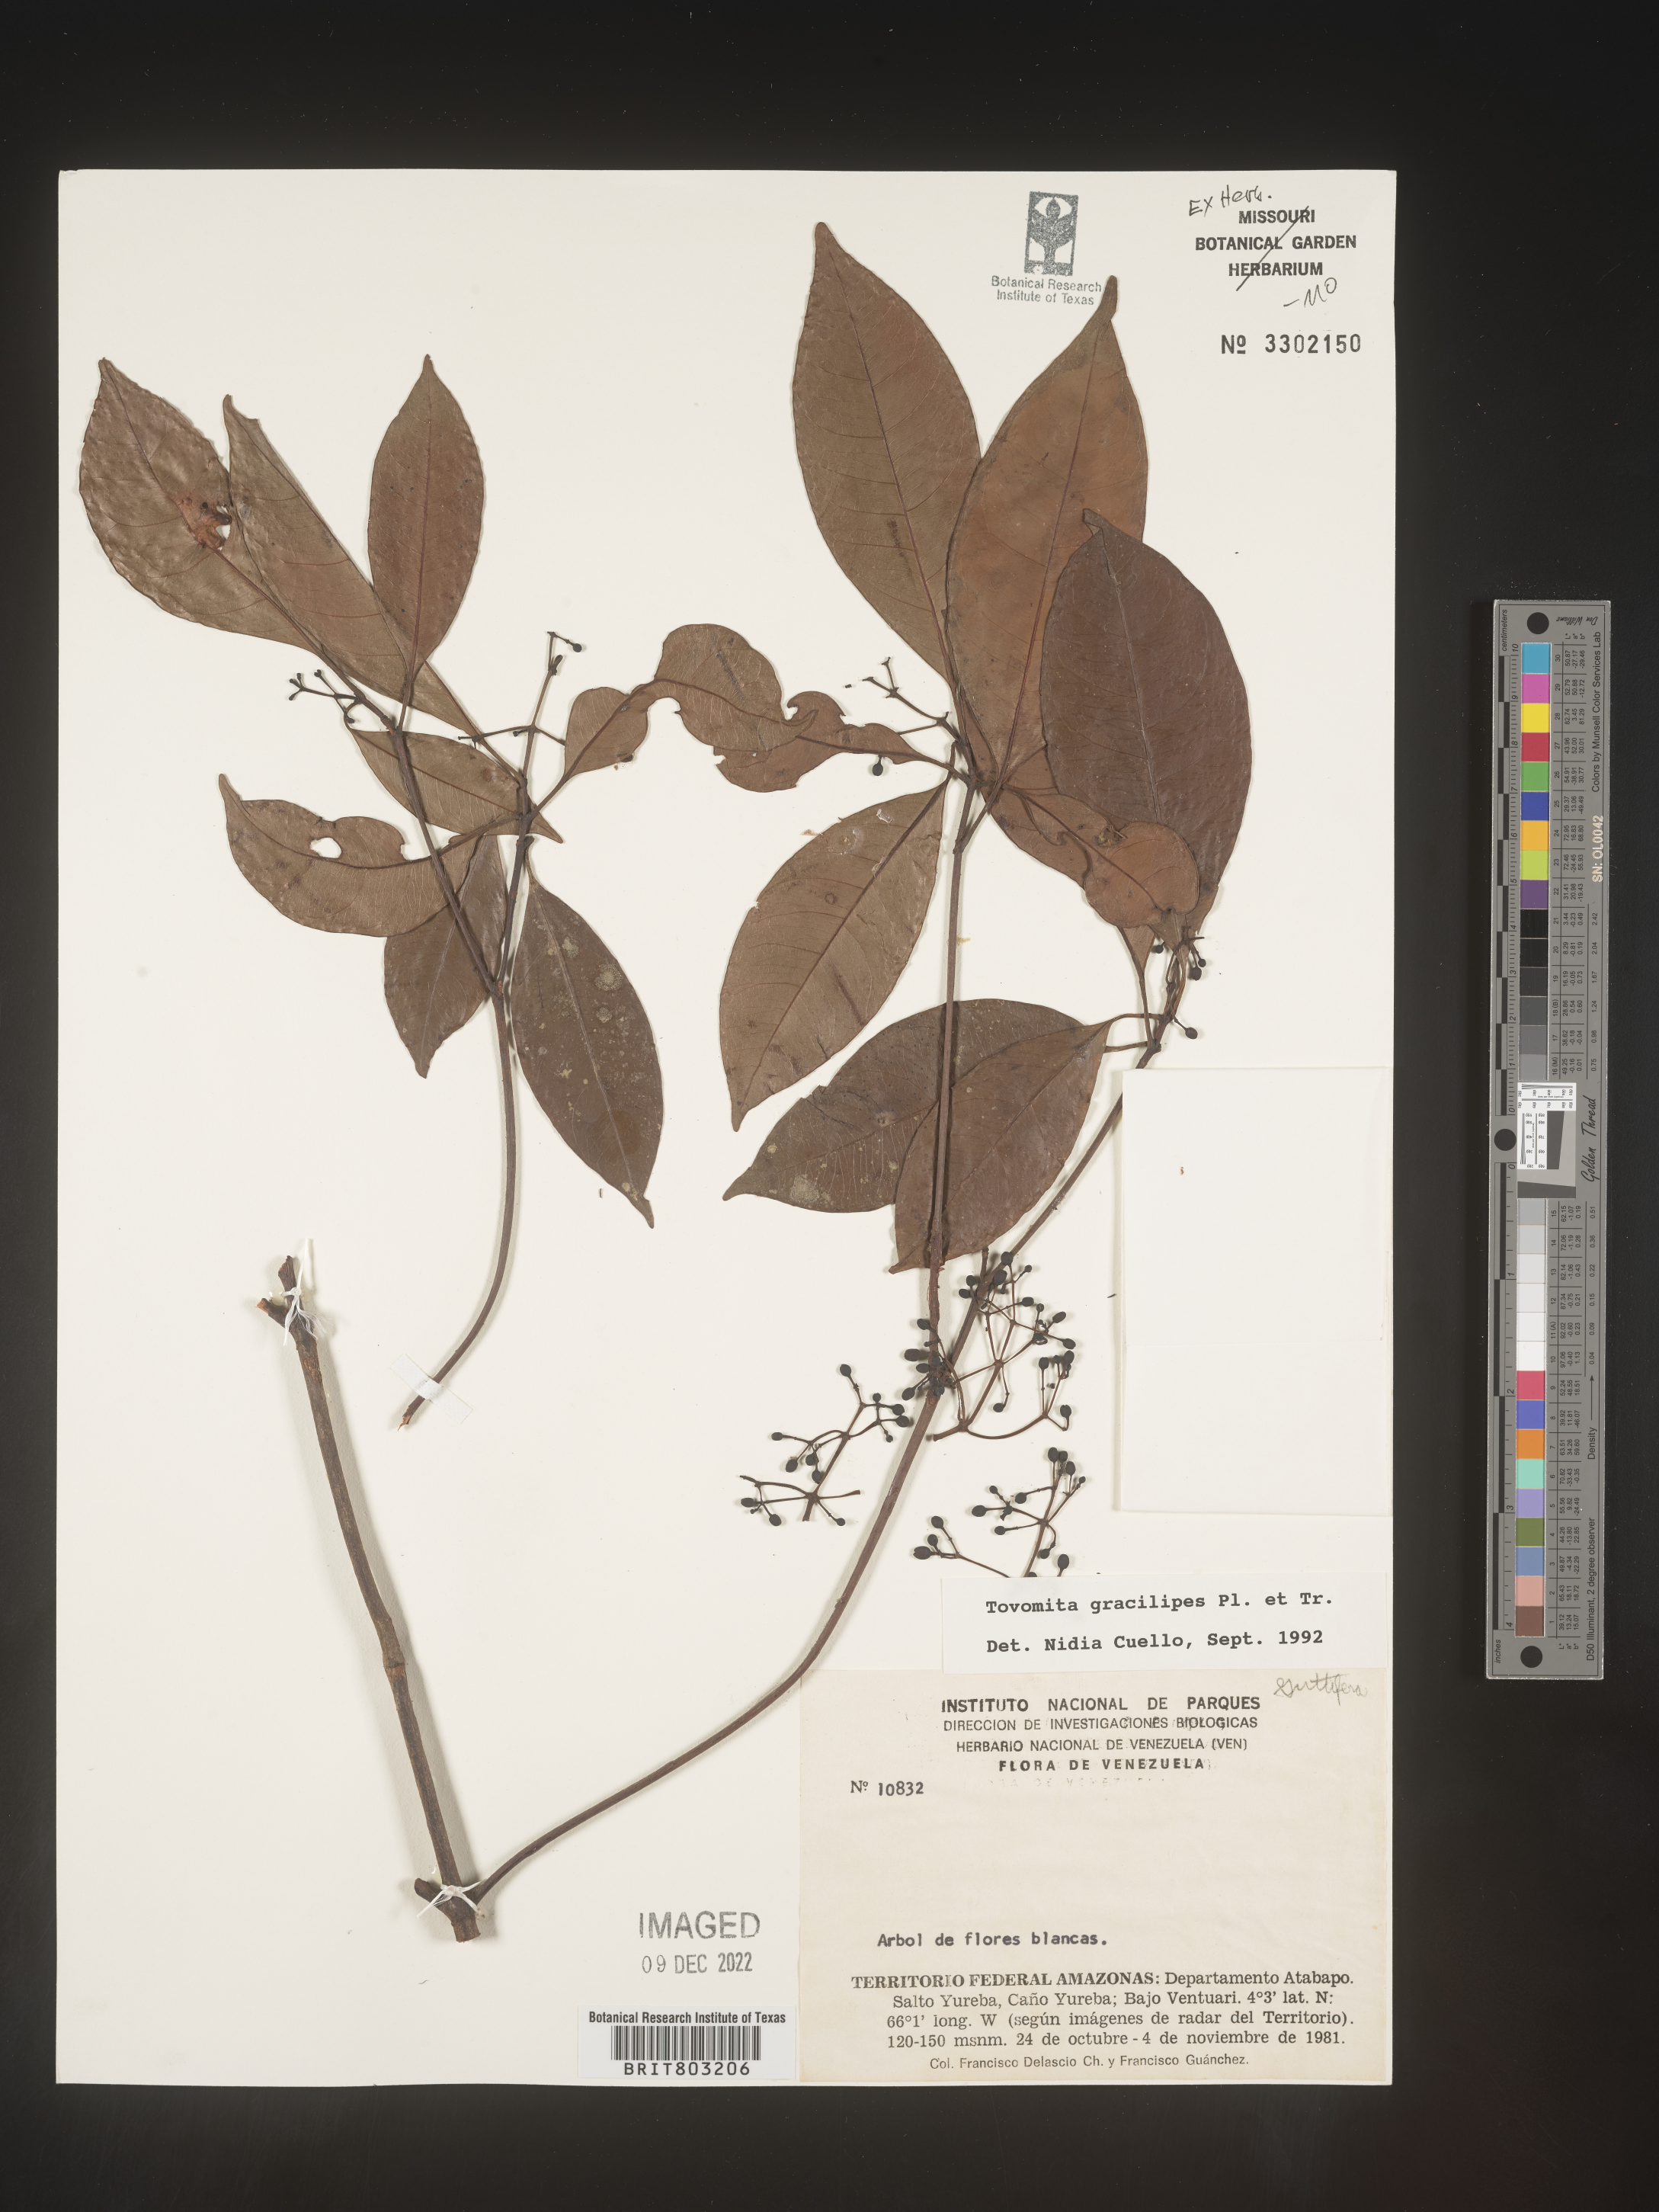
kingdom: Plantae
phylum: Tracheophyta
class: Magnoliopsida
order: Malpighiales
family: Clusiaceae
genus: Tovomita
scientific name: Tovomita
